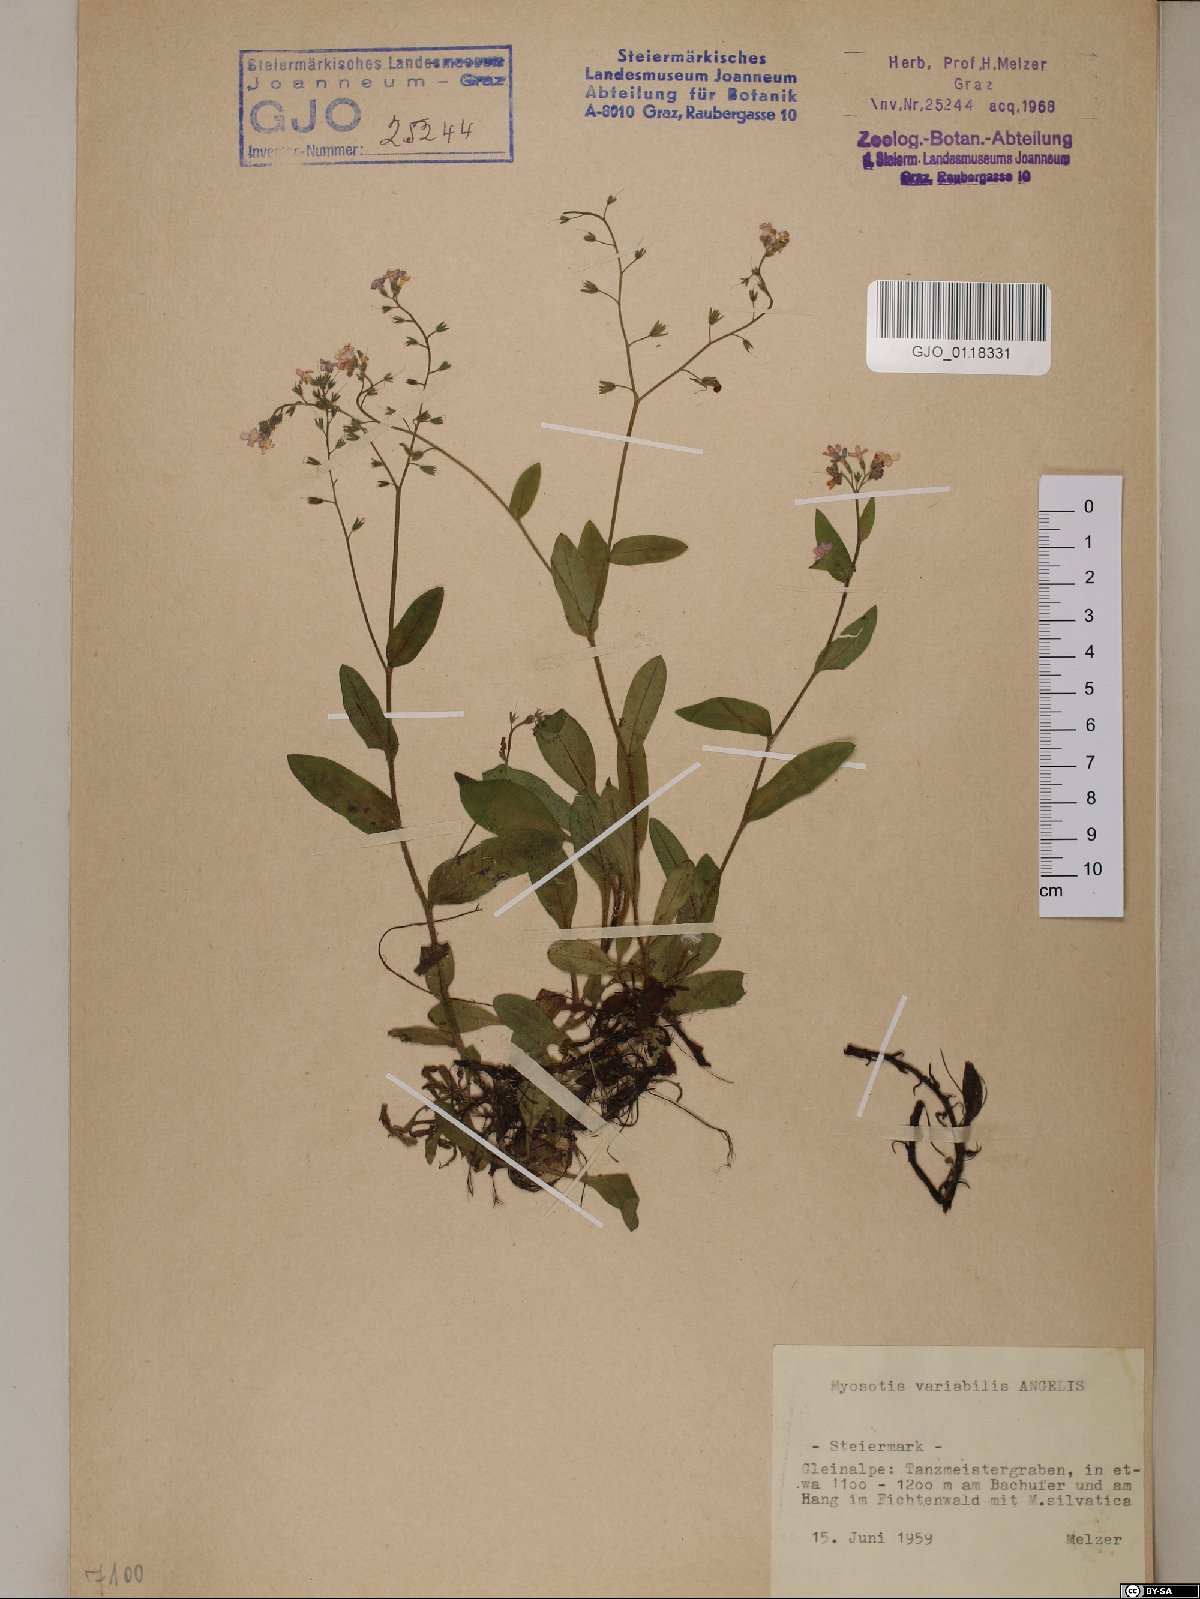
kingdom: Plantae
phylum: Tracheophyta
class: Magnoliopsida
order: Boraginales
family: Boraginaceae
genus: Myosotis
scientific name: Myosotis decumbens
